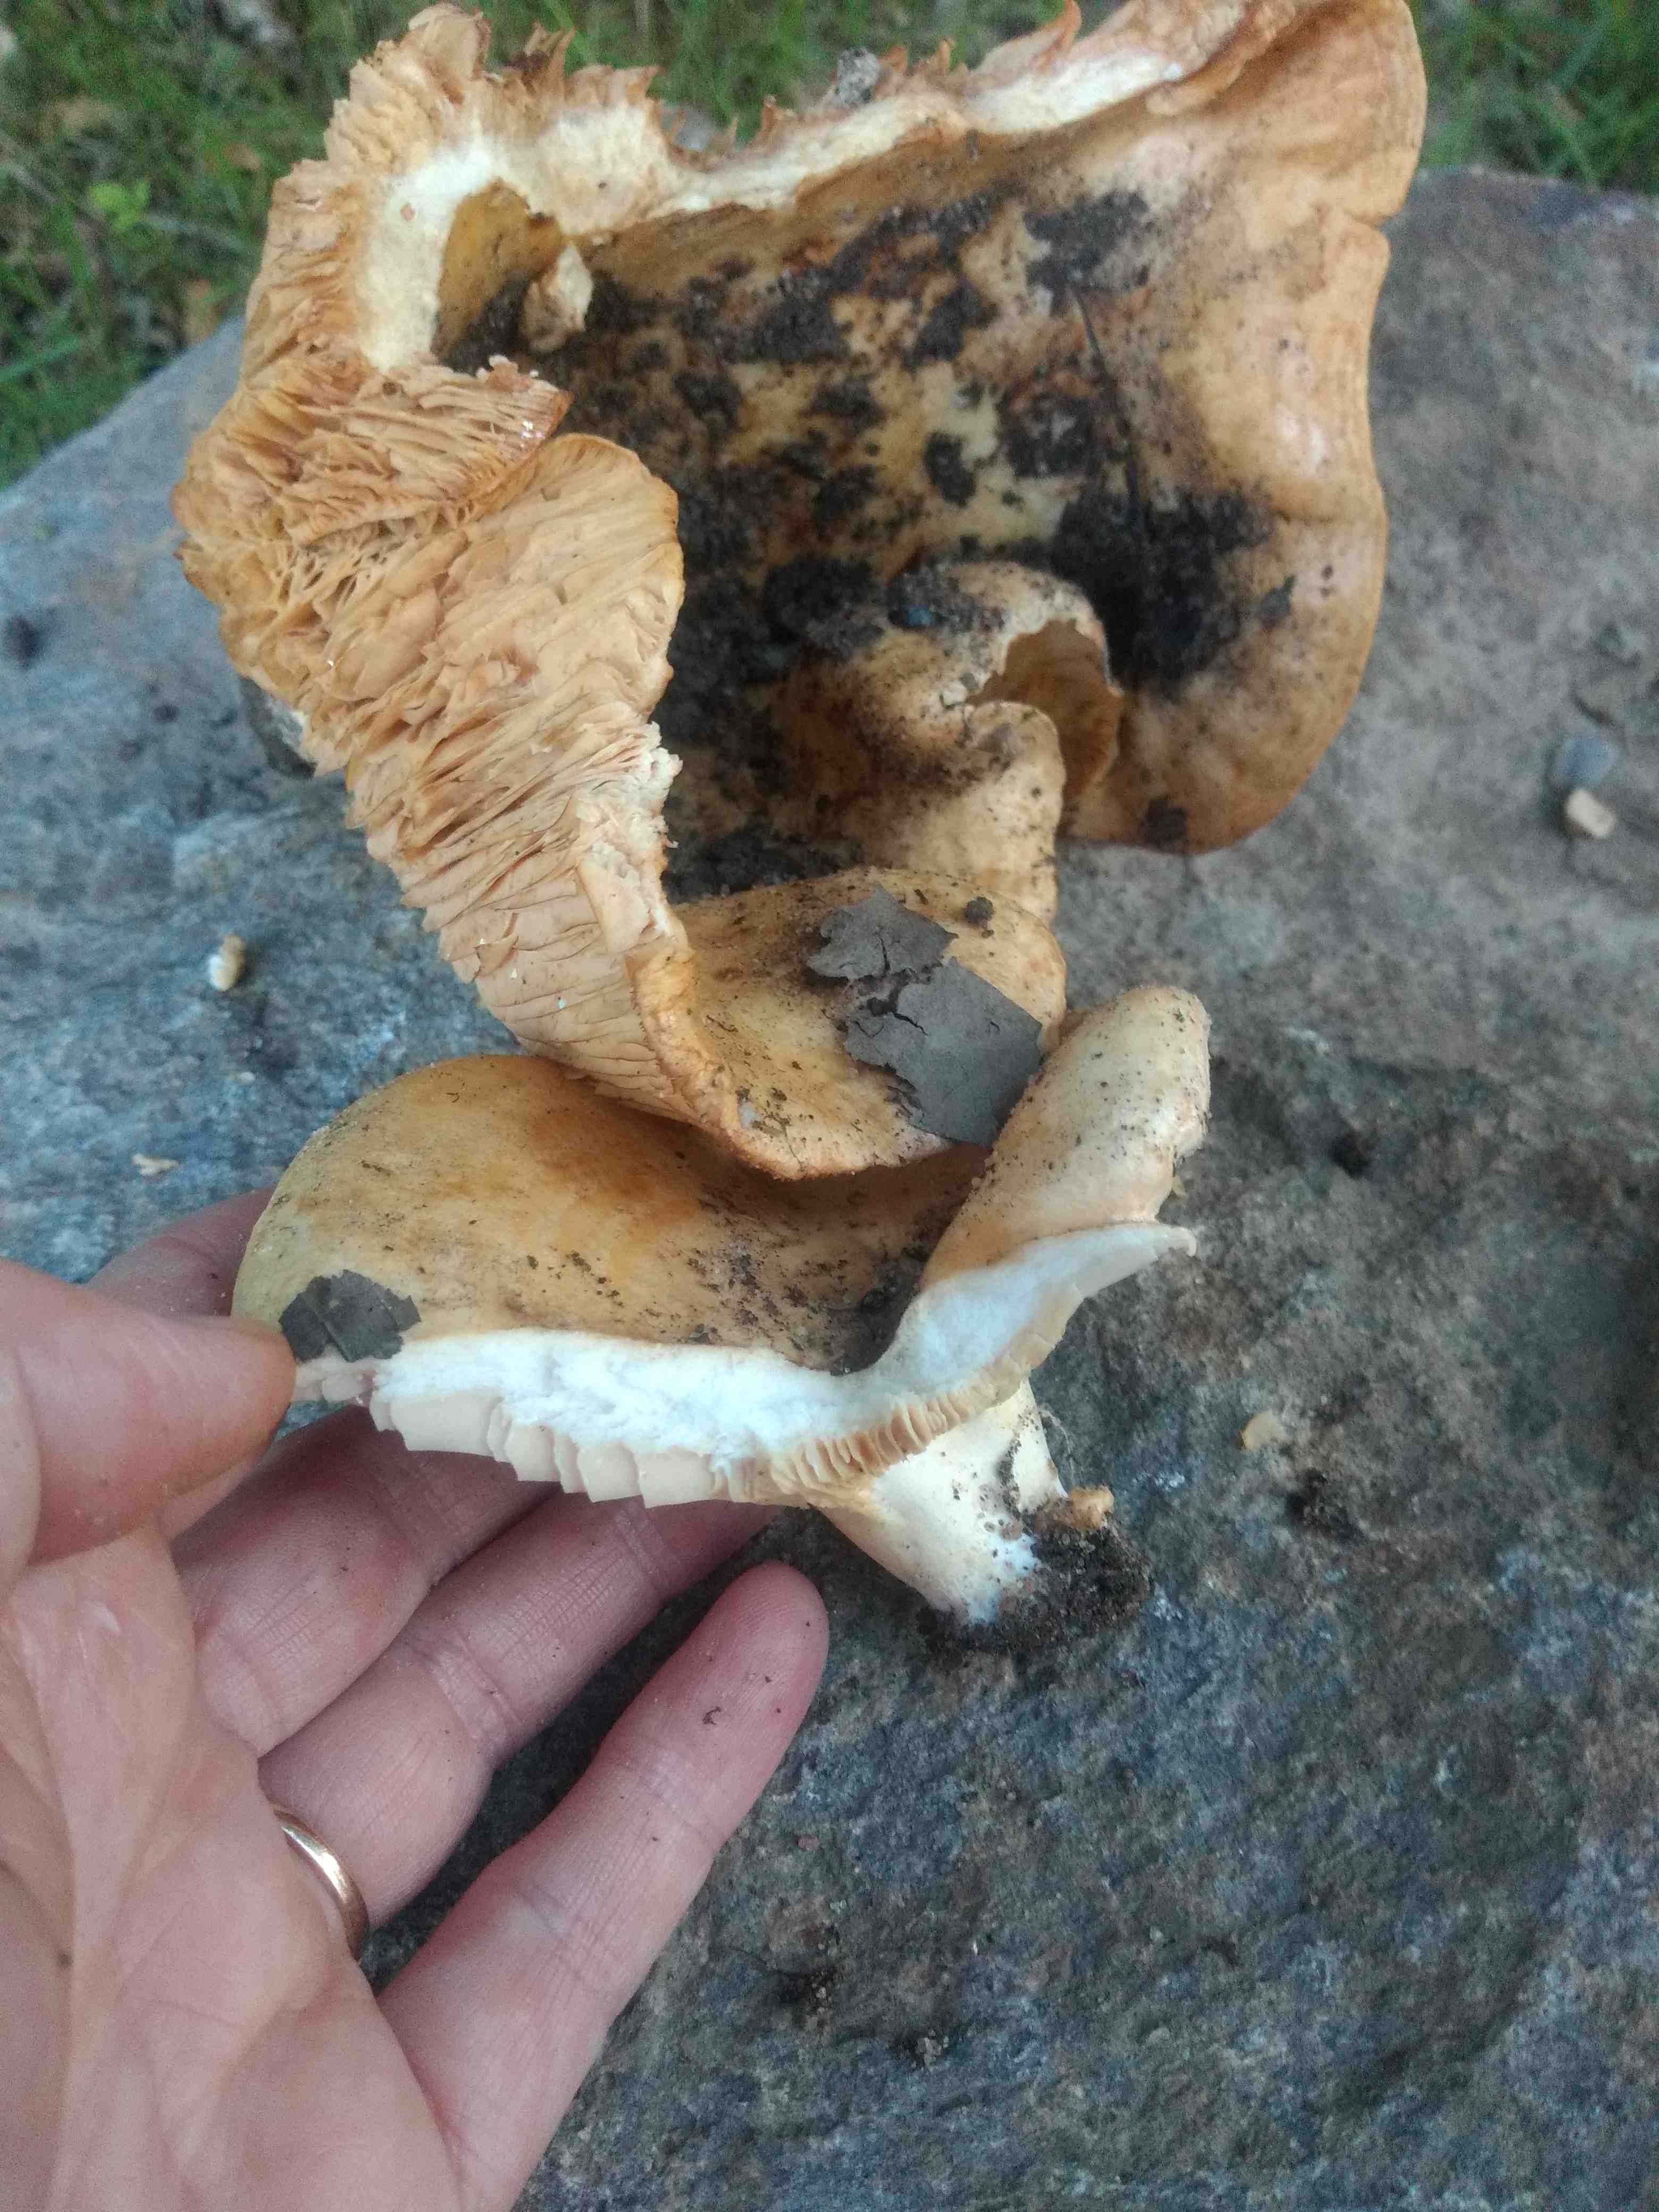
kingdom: Fungi
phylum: Basidiomycota
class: Agaricomycetes
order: Russulales
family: Russulaceae
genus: Lactarius
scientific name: Lactarius acerrimus
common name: brændende mælkehat
